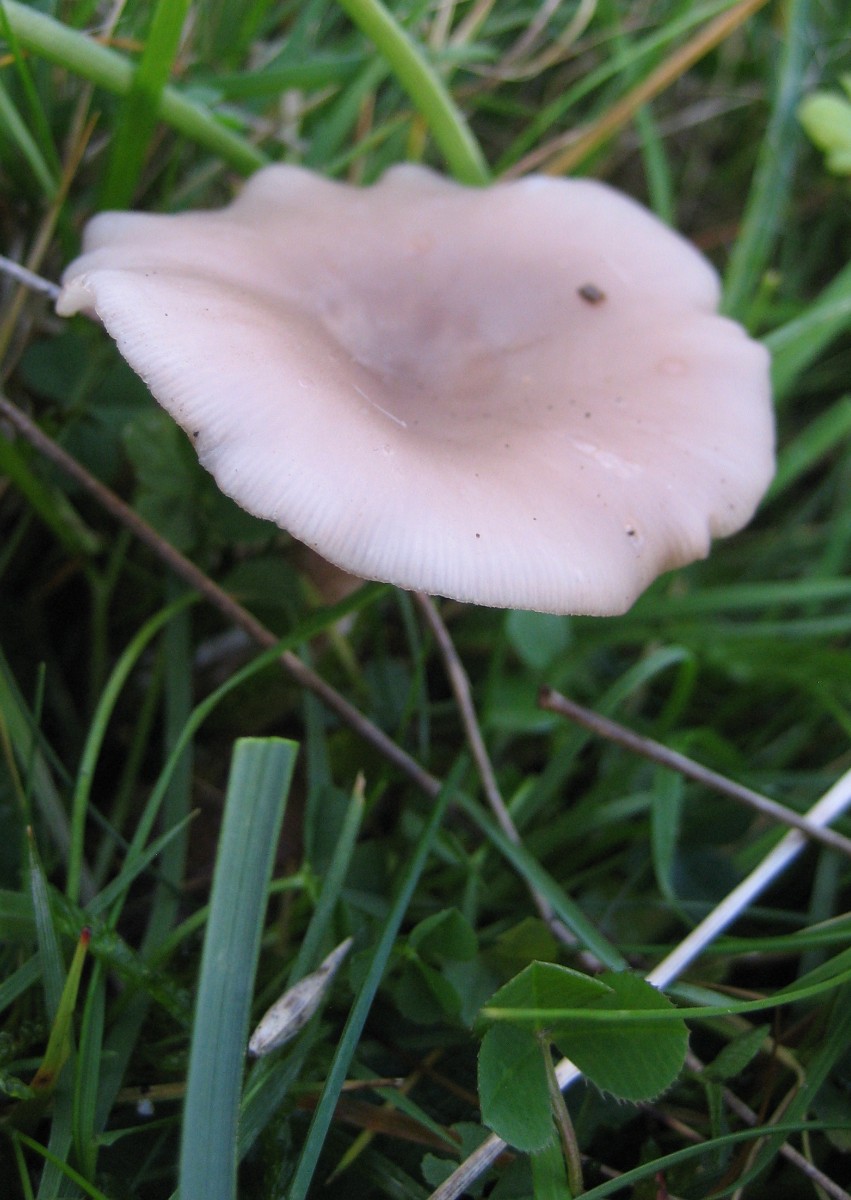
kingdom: Fungi
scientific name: Fungi
